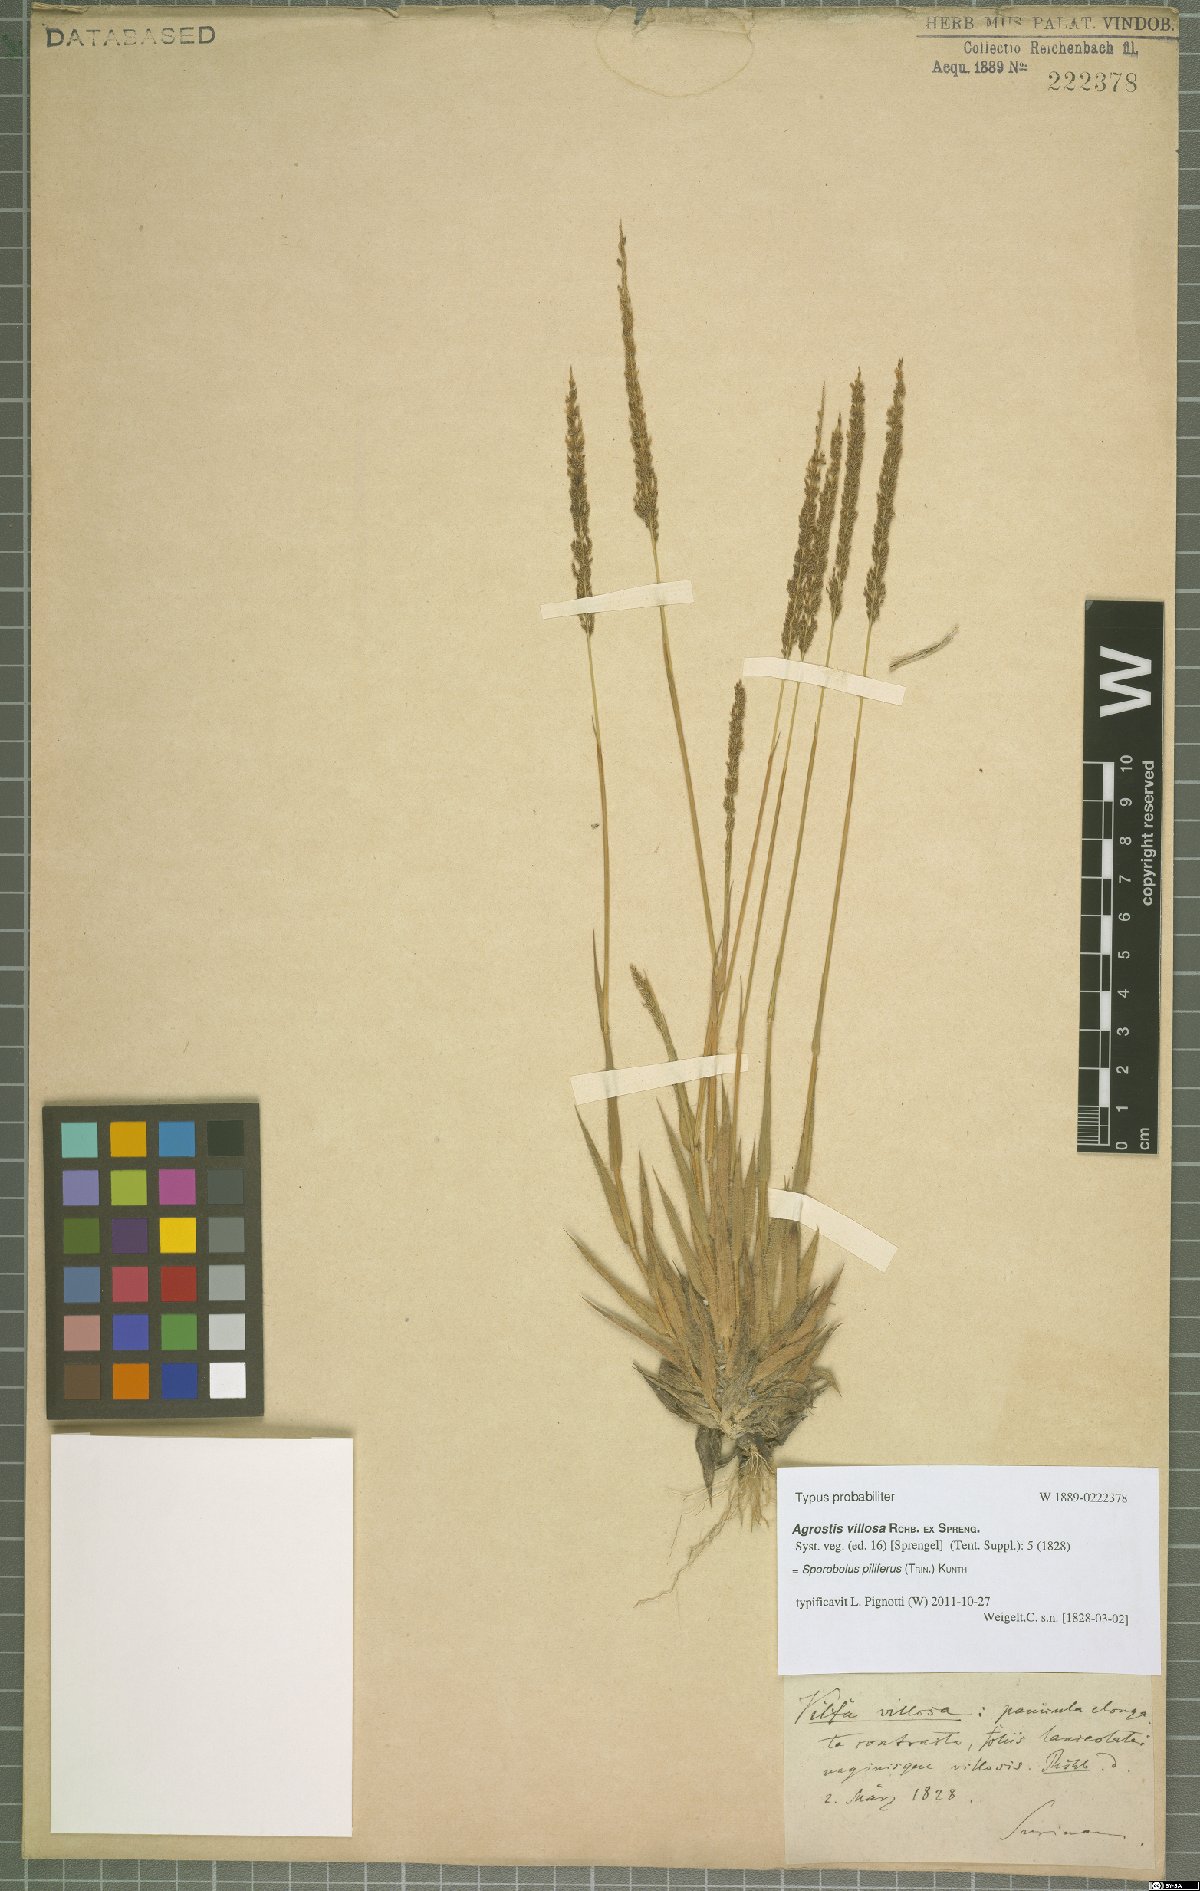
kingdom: Plantae
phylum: Tracheophyta
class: Liliopsida
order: Poales
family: Poaceae
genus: Sporobolus
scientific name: Sporobolus pilifer
